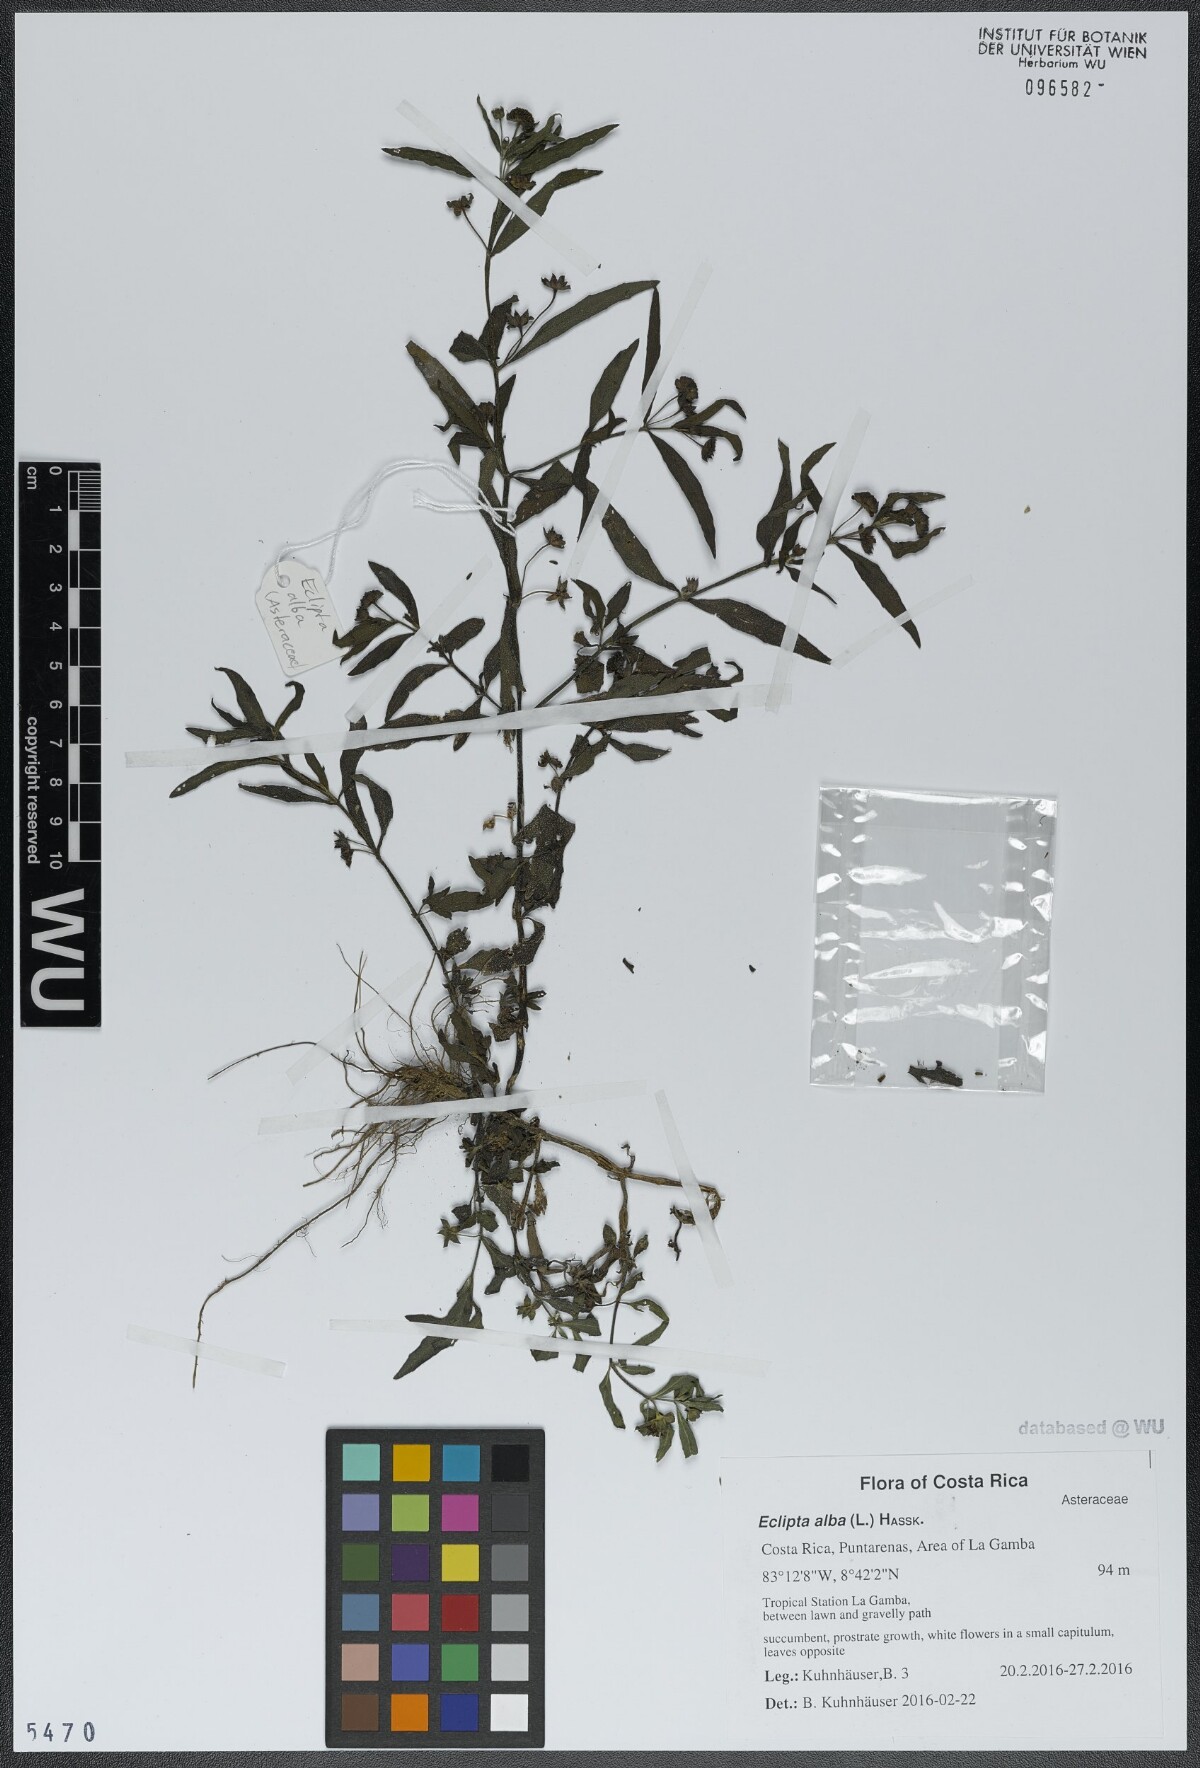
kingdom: Plantae
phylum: Tracheophyta
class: Magnoliopsida
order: Asterales
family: Asteraceae
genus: Eclipta
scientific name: Eclipta alba
